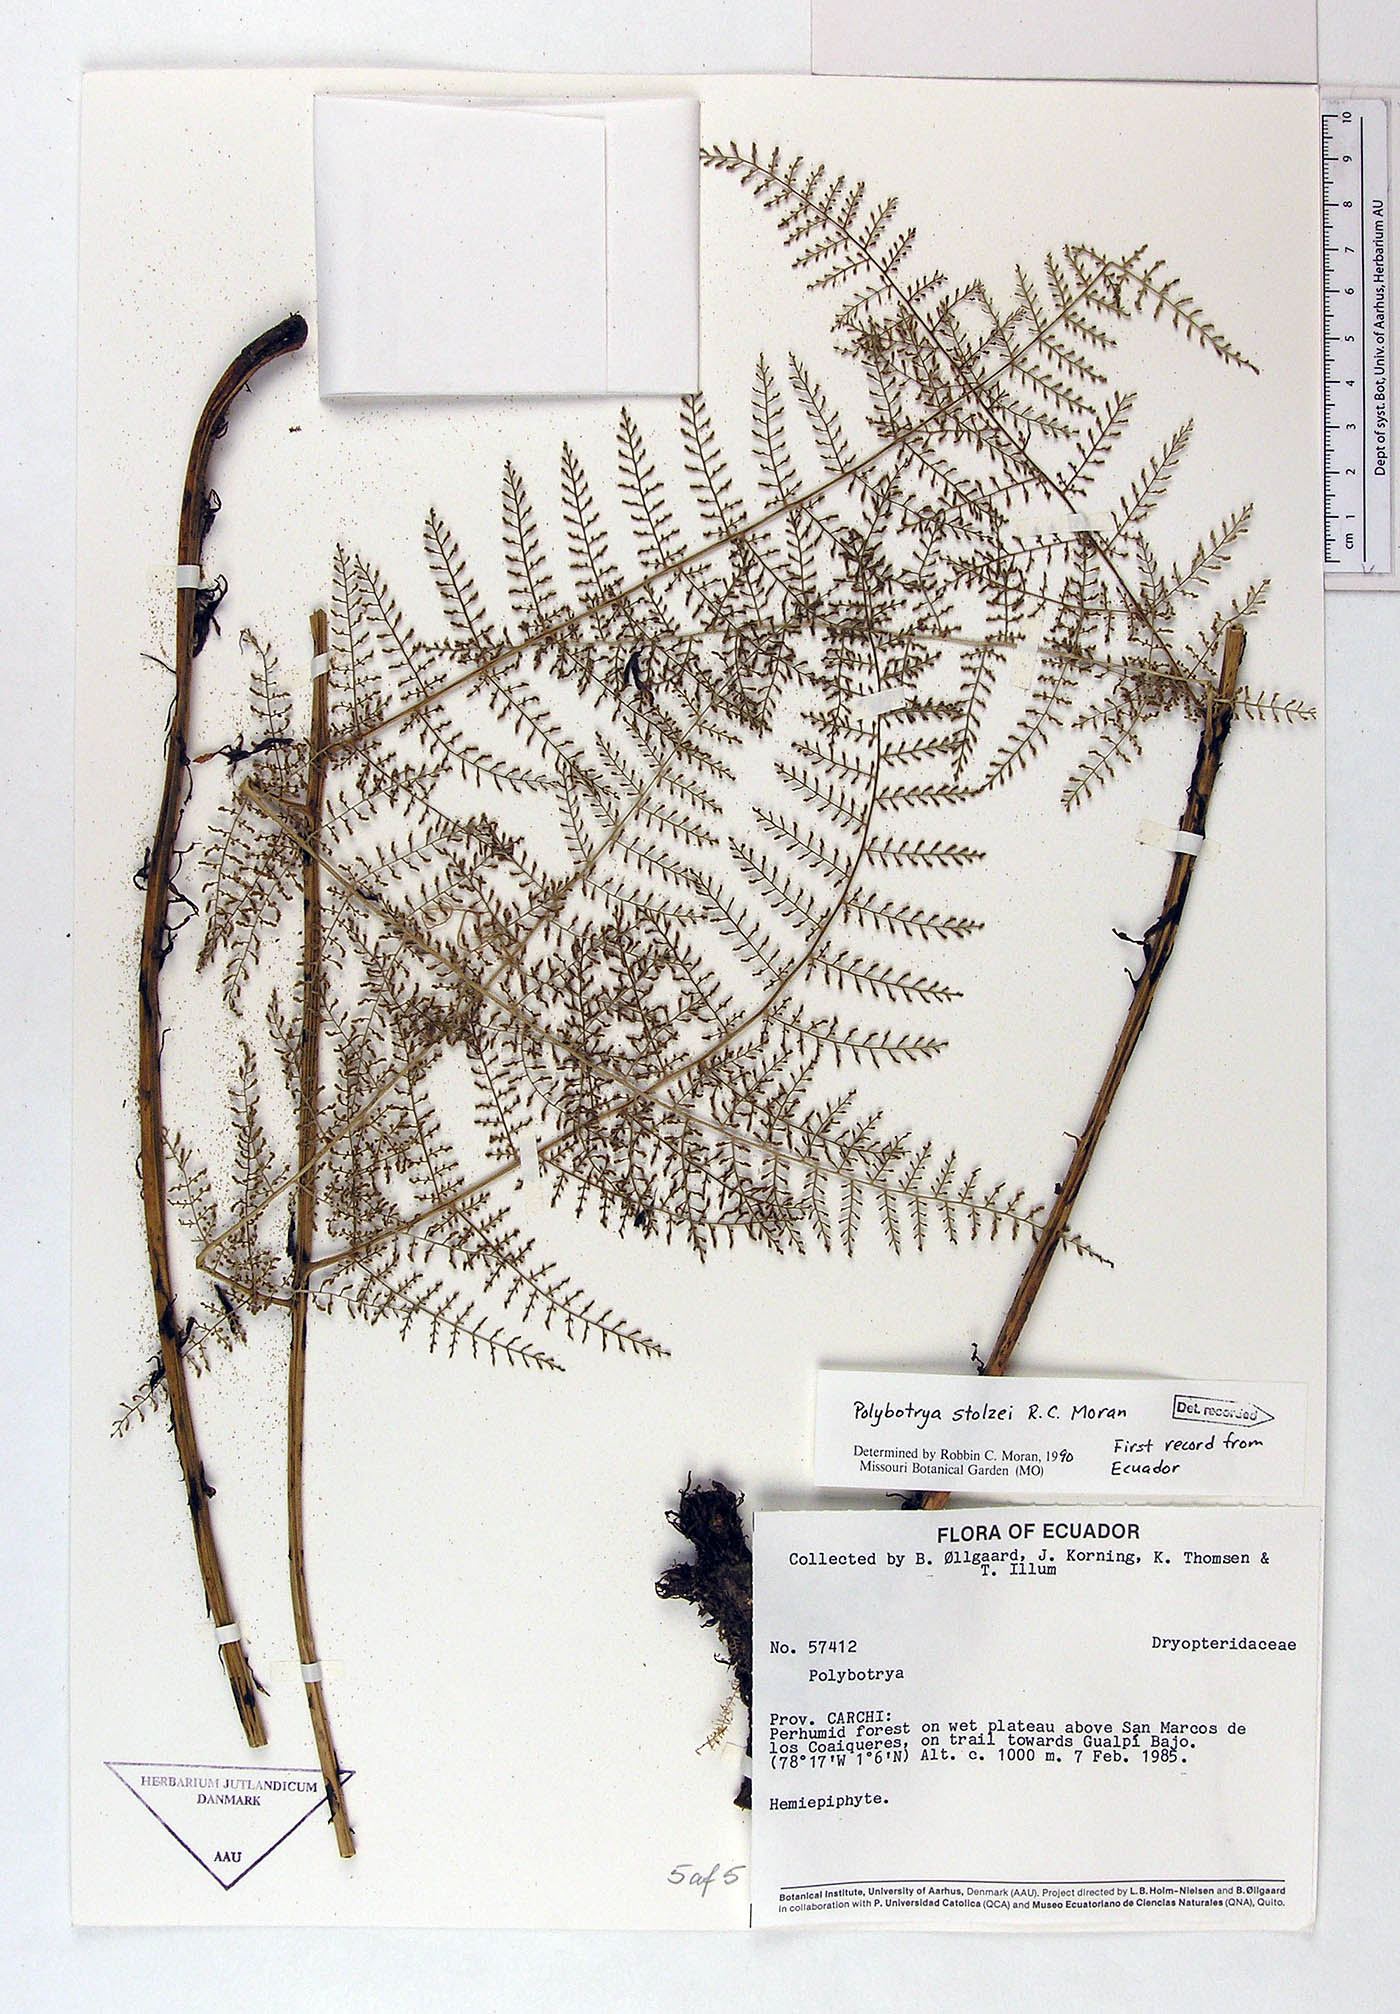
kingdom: Plantae
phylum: Tracheophyta
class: Polypodiopsida
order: Polypodiales
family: Dryopteridaceae
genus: Polybotrya
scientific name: Polybotrya stolzei
